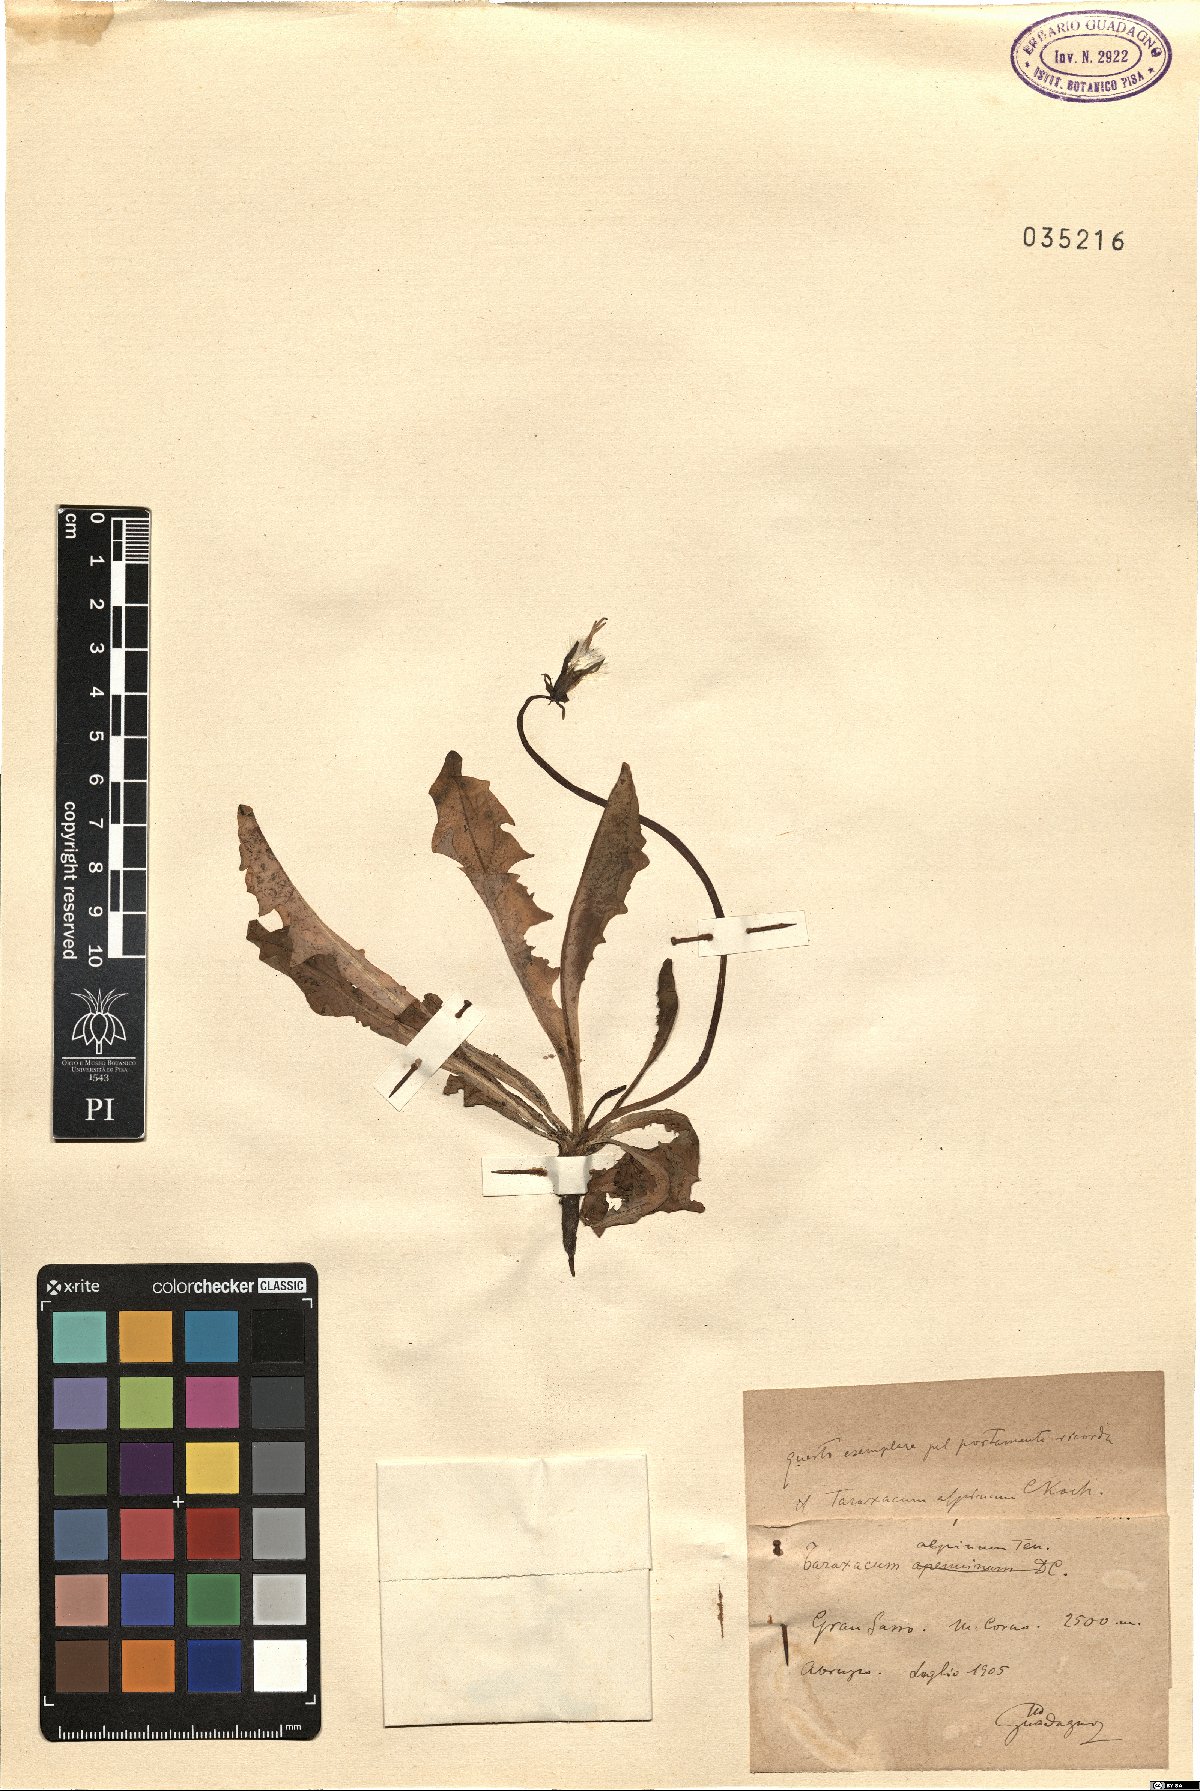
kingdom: Plantae
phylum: Tracheophyta
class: Magnoliopsida
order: Asterales
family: Asteraceae
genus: Taraxacum
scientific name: Taraxacum alpinum
